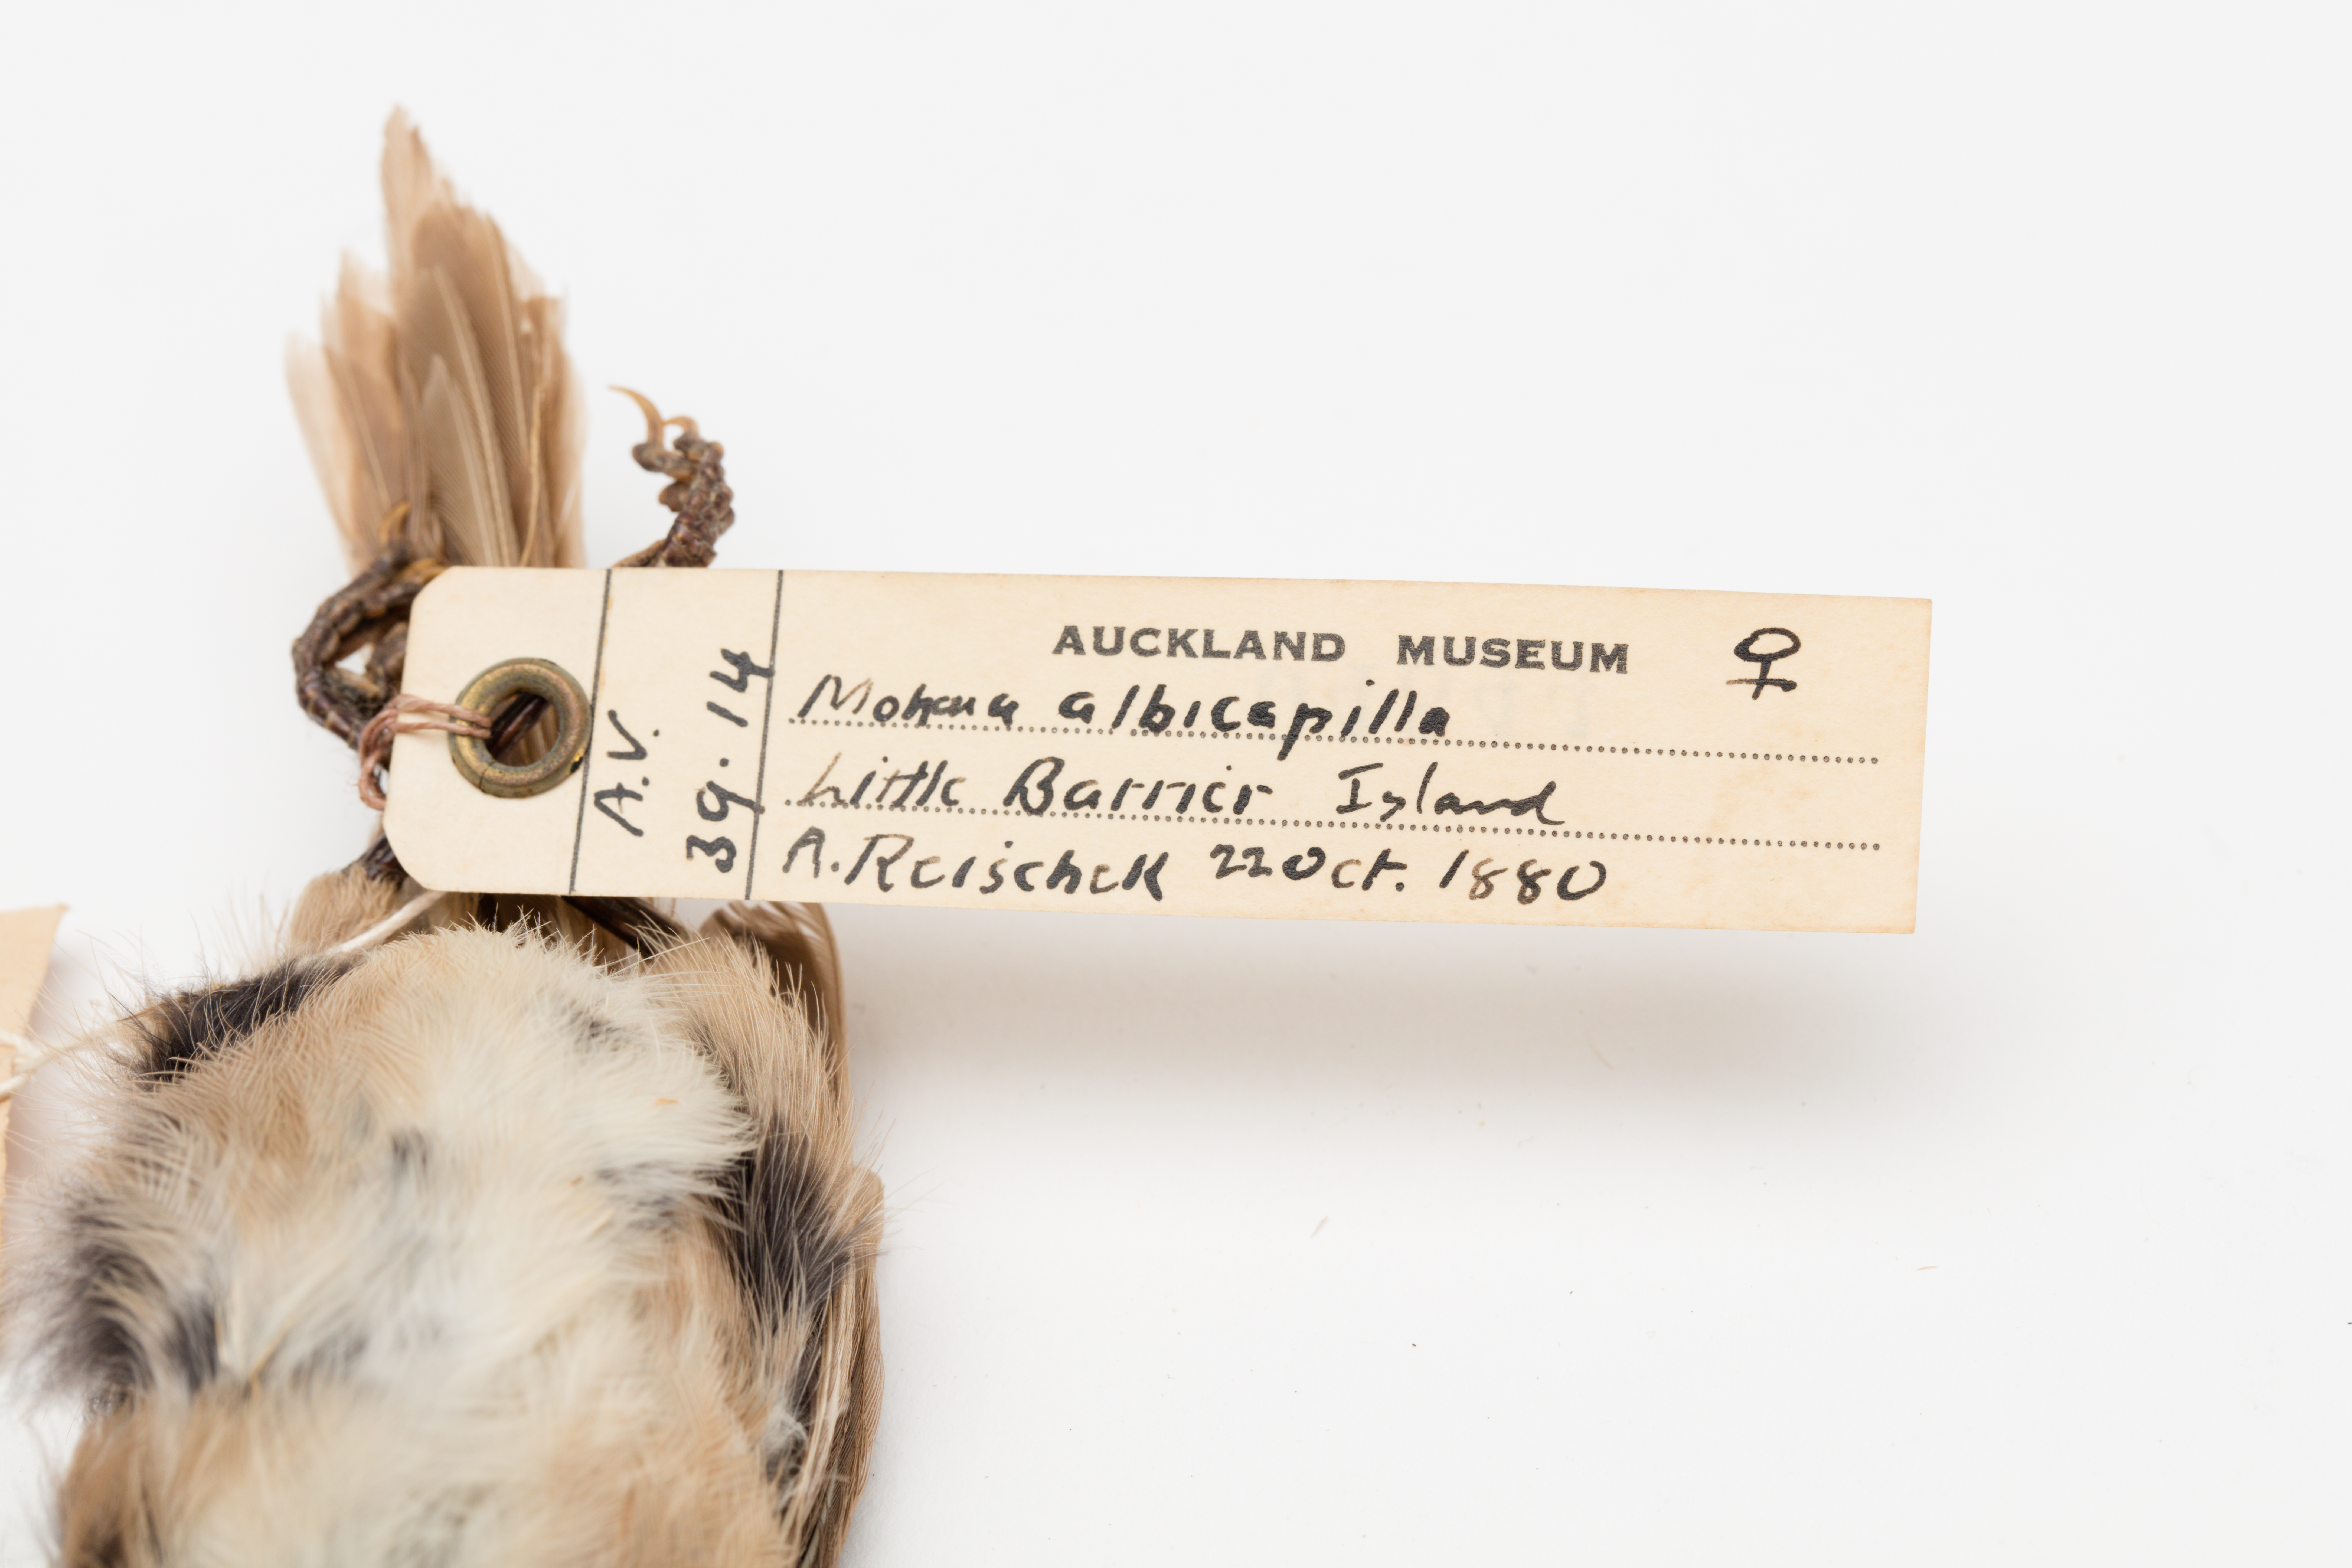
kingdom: Animalia
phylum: Chordata
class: Aves
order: Passeriformes
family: Acanthizidae
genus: Mohoua
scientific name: Mohoua albicilla
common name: Whitehead
